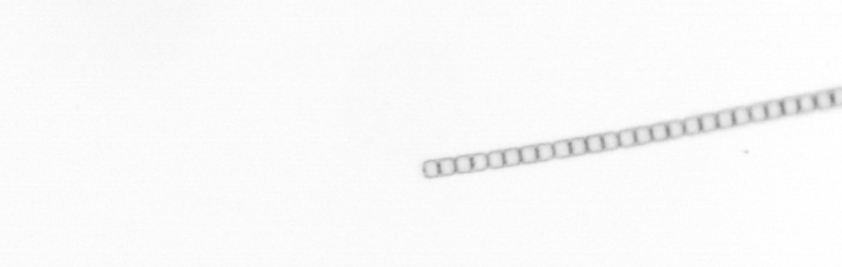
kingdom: Chromista
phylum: Ochrophyta
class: Bacillariophyceae
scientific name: Bacillariophyceae
